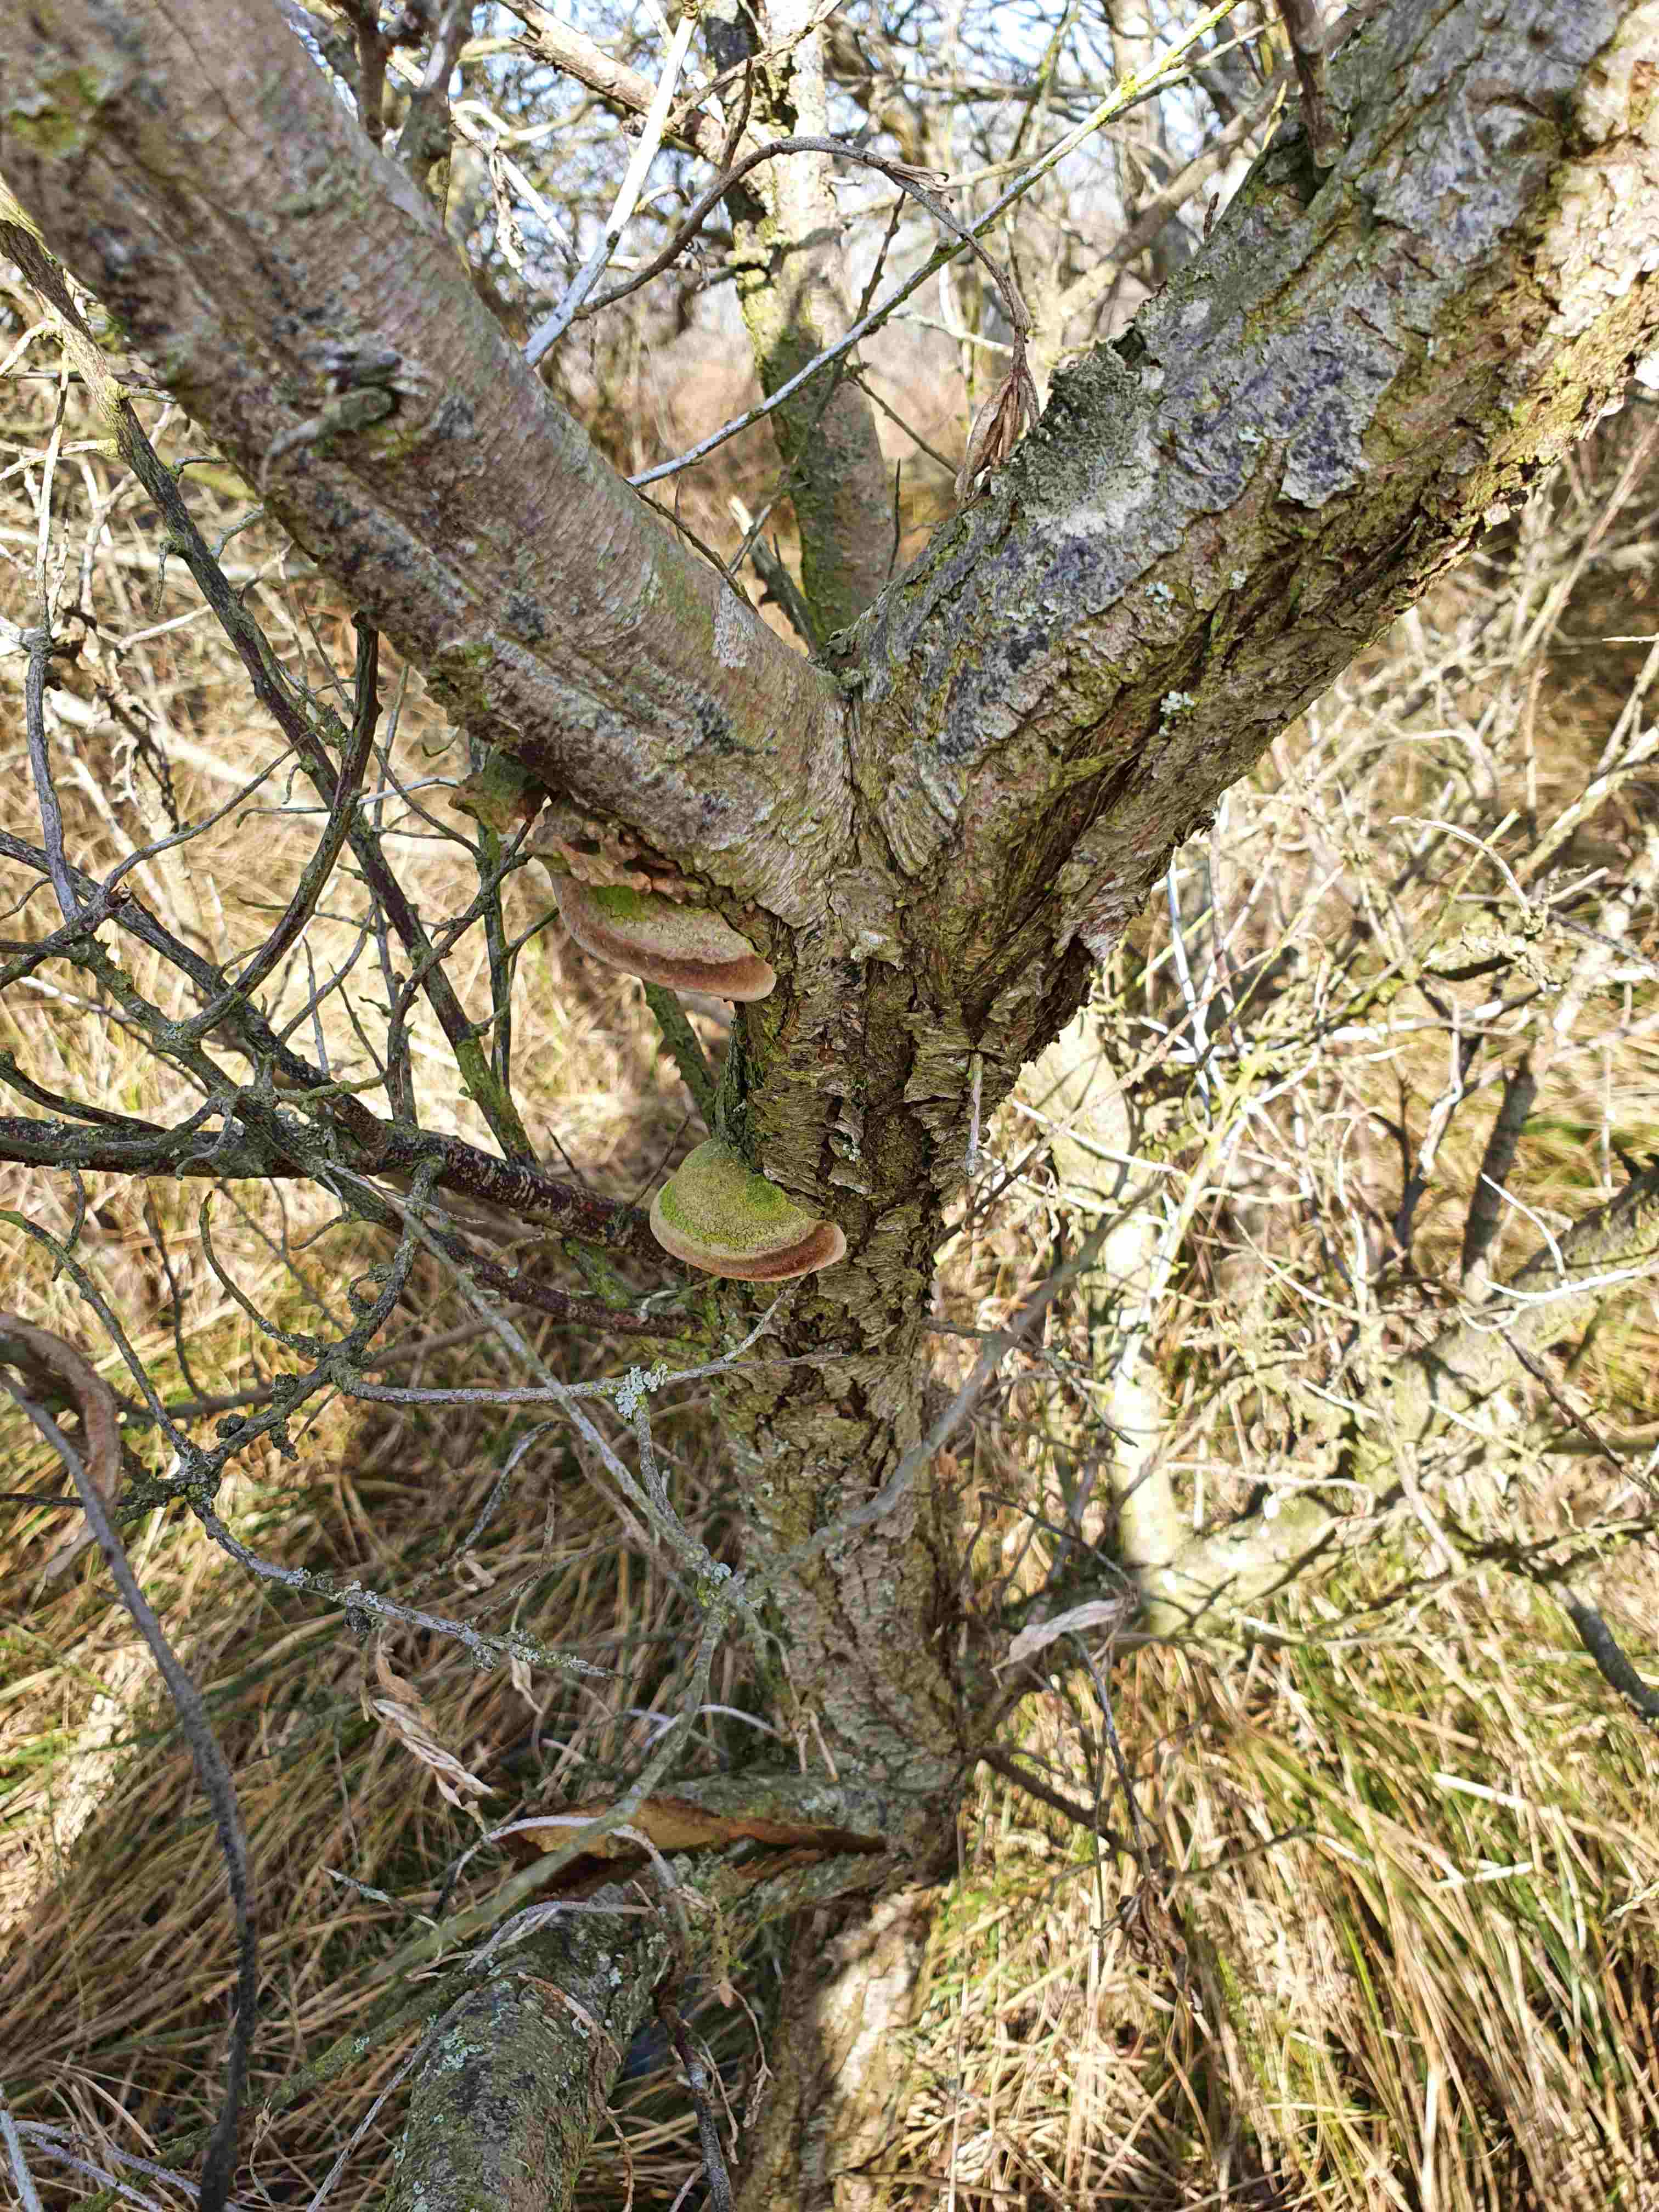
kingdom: Fungi
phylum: Basidiomycota
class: Agaricomycetes
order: Hymenochaetales
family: Hymenochaetaceae
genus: Fomitiporia
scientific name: Fomitiporia hippophaeicola
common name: havtorn-ildporesvamp
